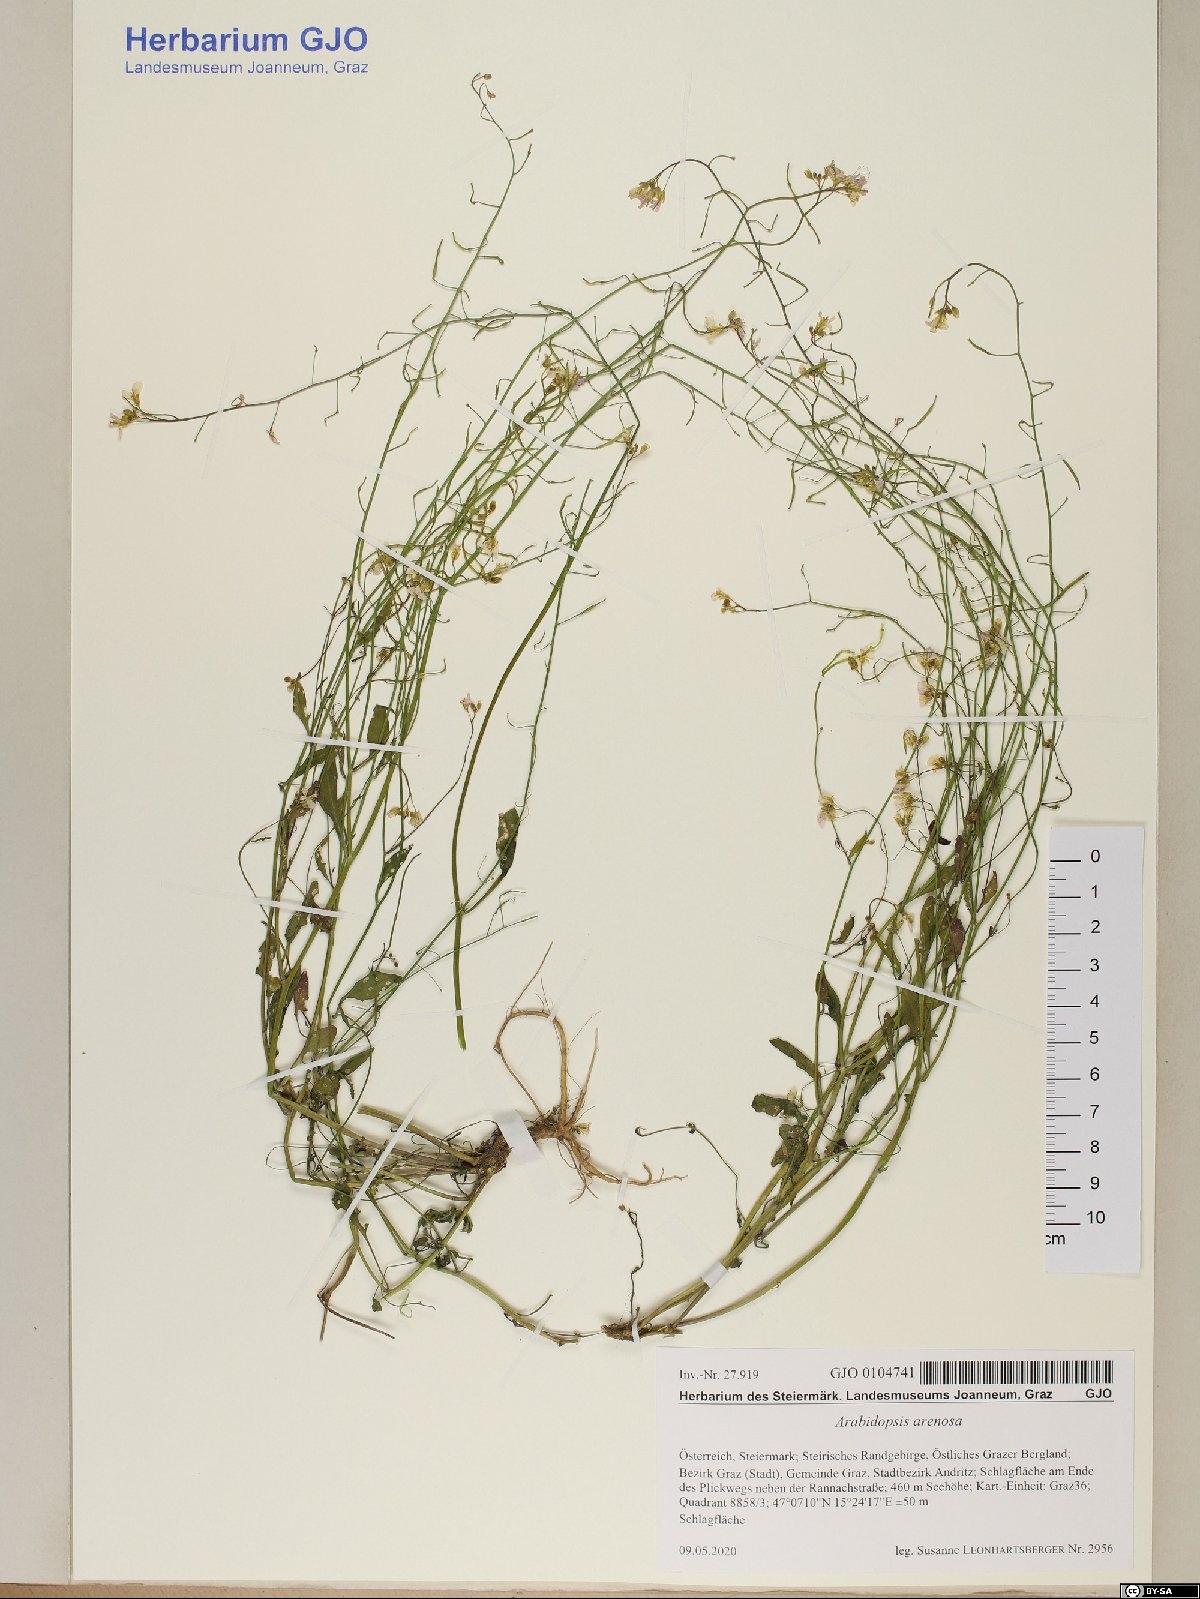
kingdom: Plantae
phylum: Tracheophyta
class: Magnoliopsida
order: Brassicales
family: Brassicaceae
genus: Arabidopsis
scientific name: Arabidopsis arenosa
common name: Sand rock-cress
